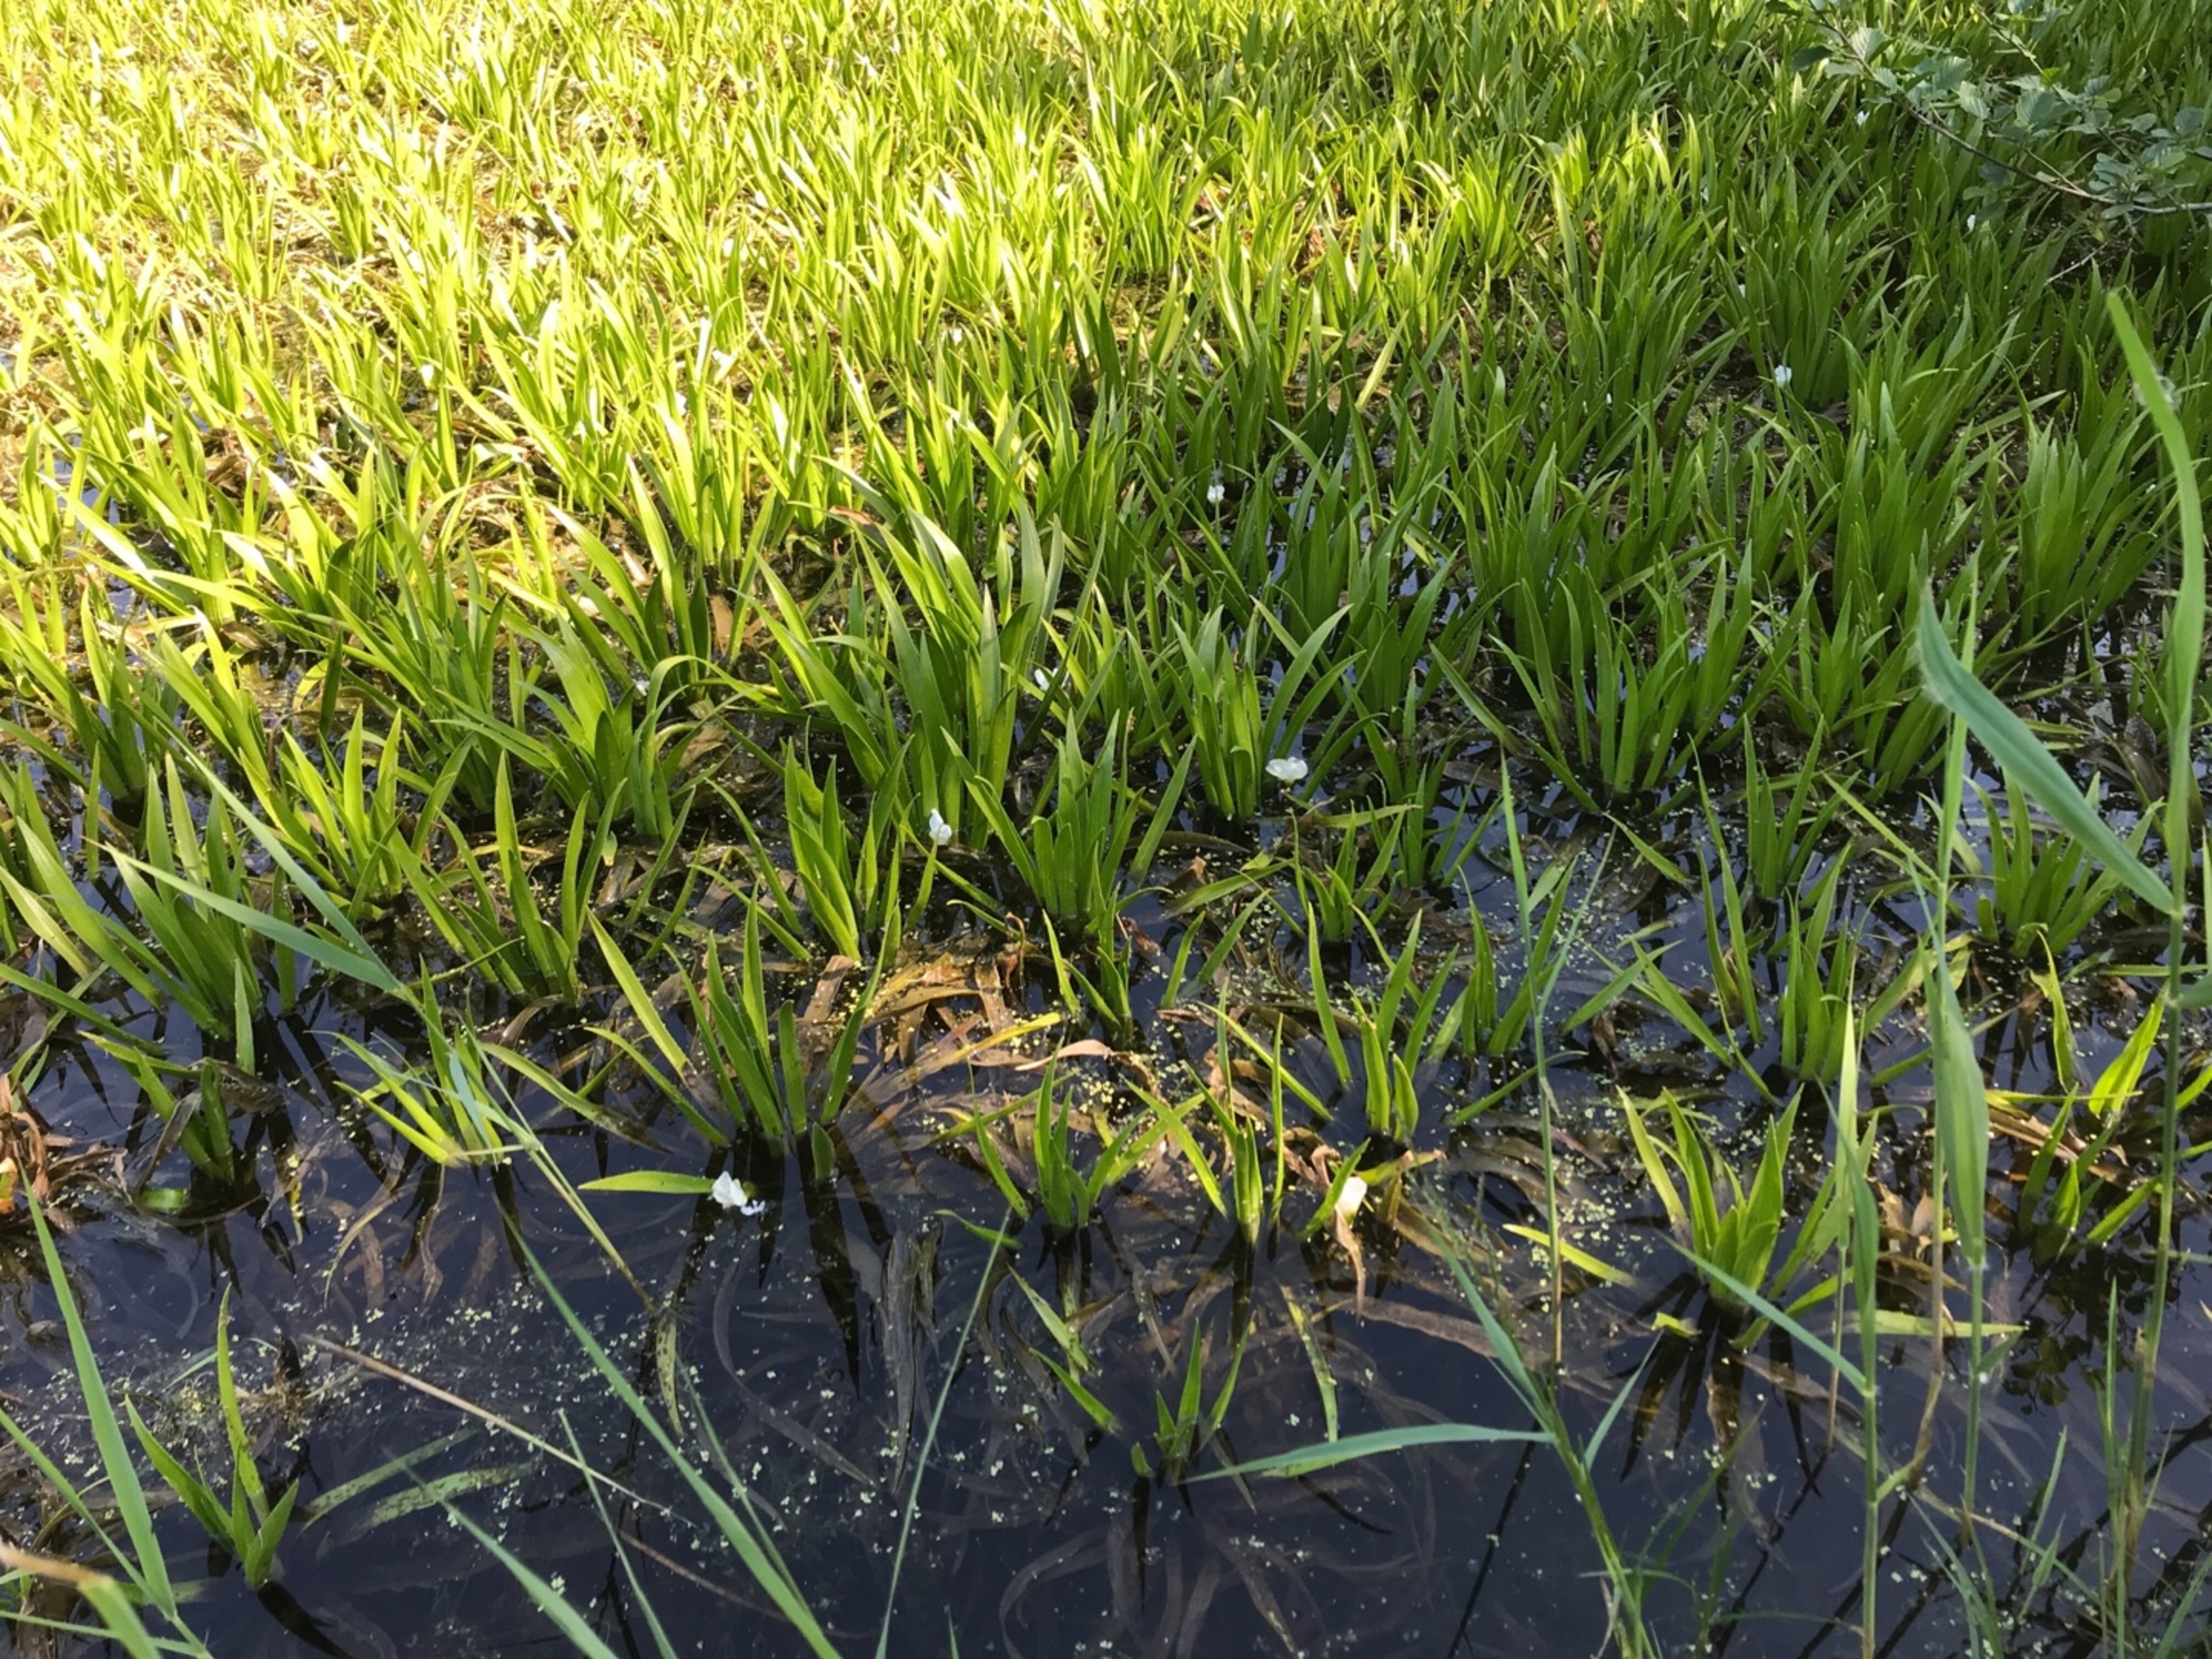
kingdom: Plantae
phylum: Tracheophyta
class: Liliopsida
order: Alismatales
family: Hydrocharitaceae
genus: Stratiotes
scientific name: Stratiotes aloides
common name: Krebseklo
